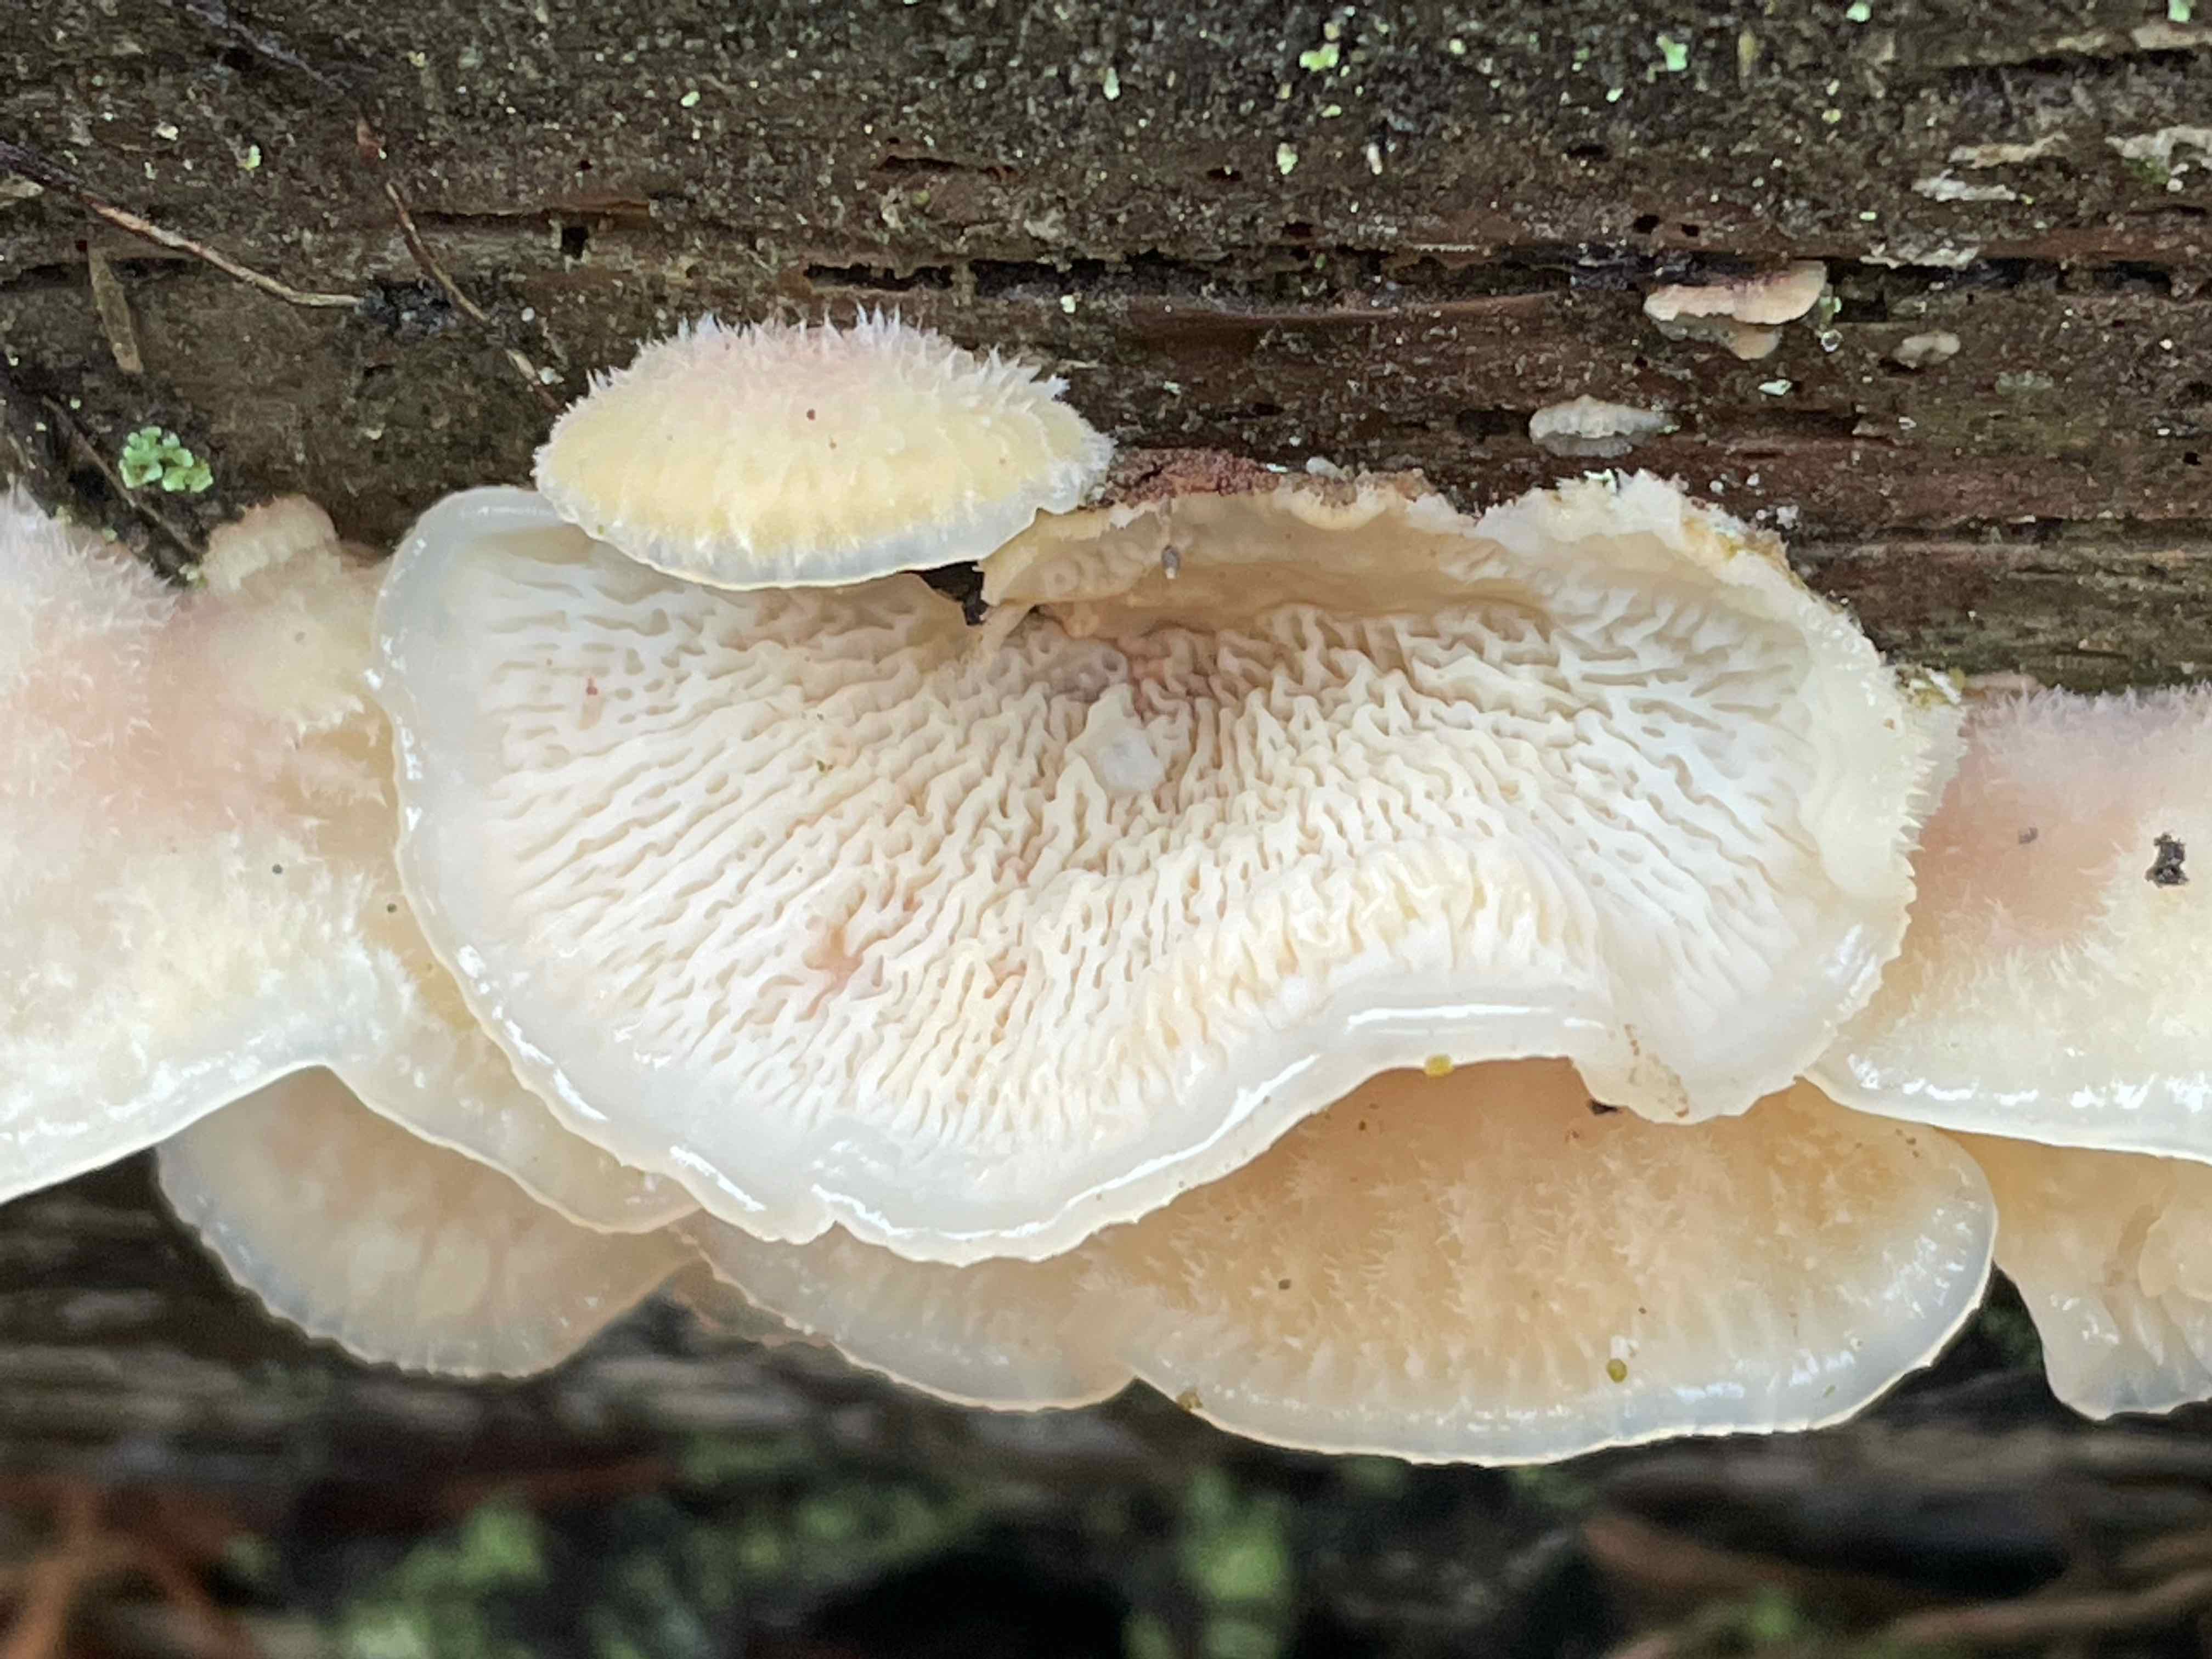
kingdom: Fungi
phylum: Basidiomycota
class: Agaricomycetes
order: Polyporales
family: Meruliaceae
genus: Phlebia
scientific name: Phlebia tremellosa
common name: bævrende åresvamp
